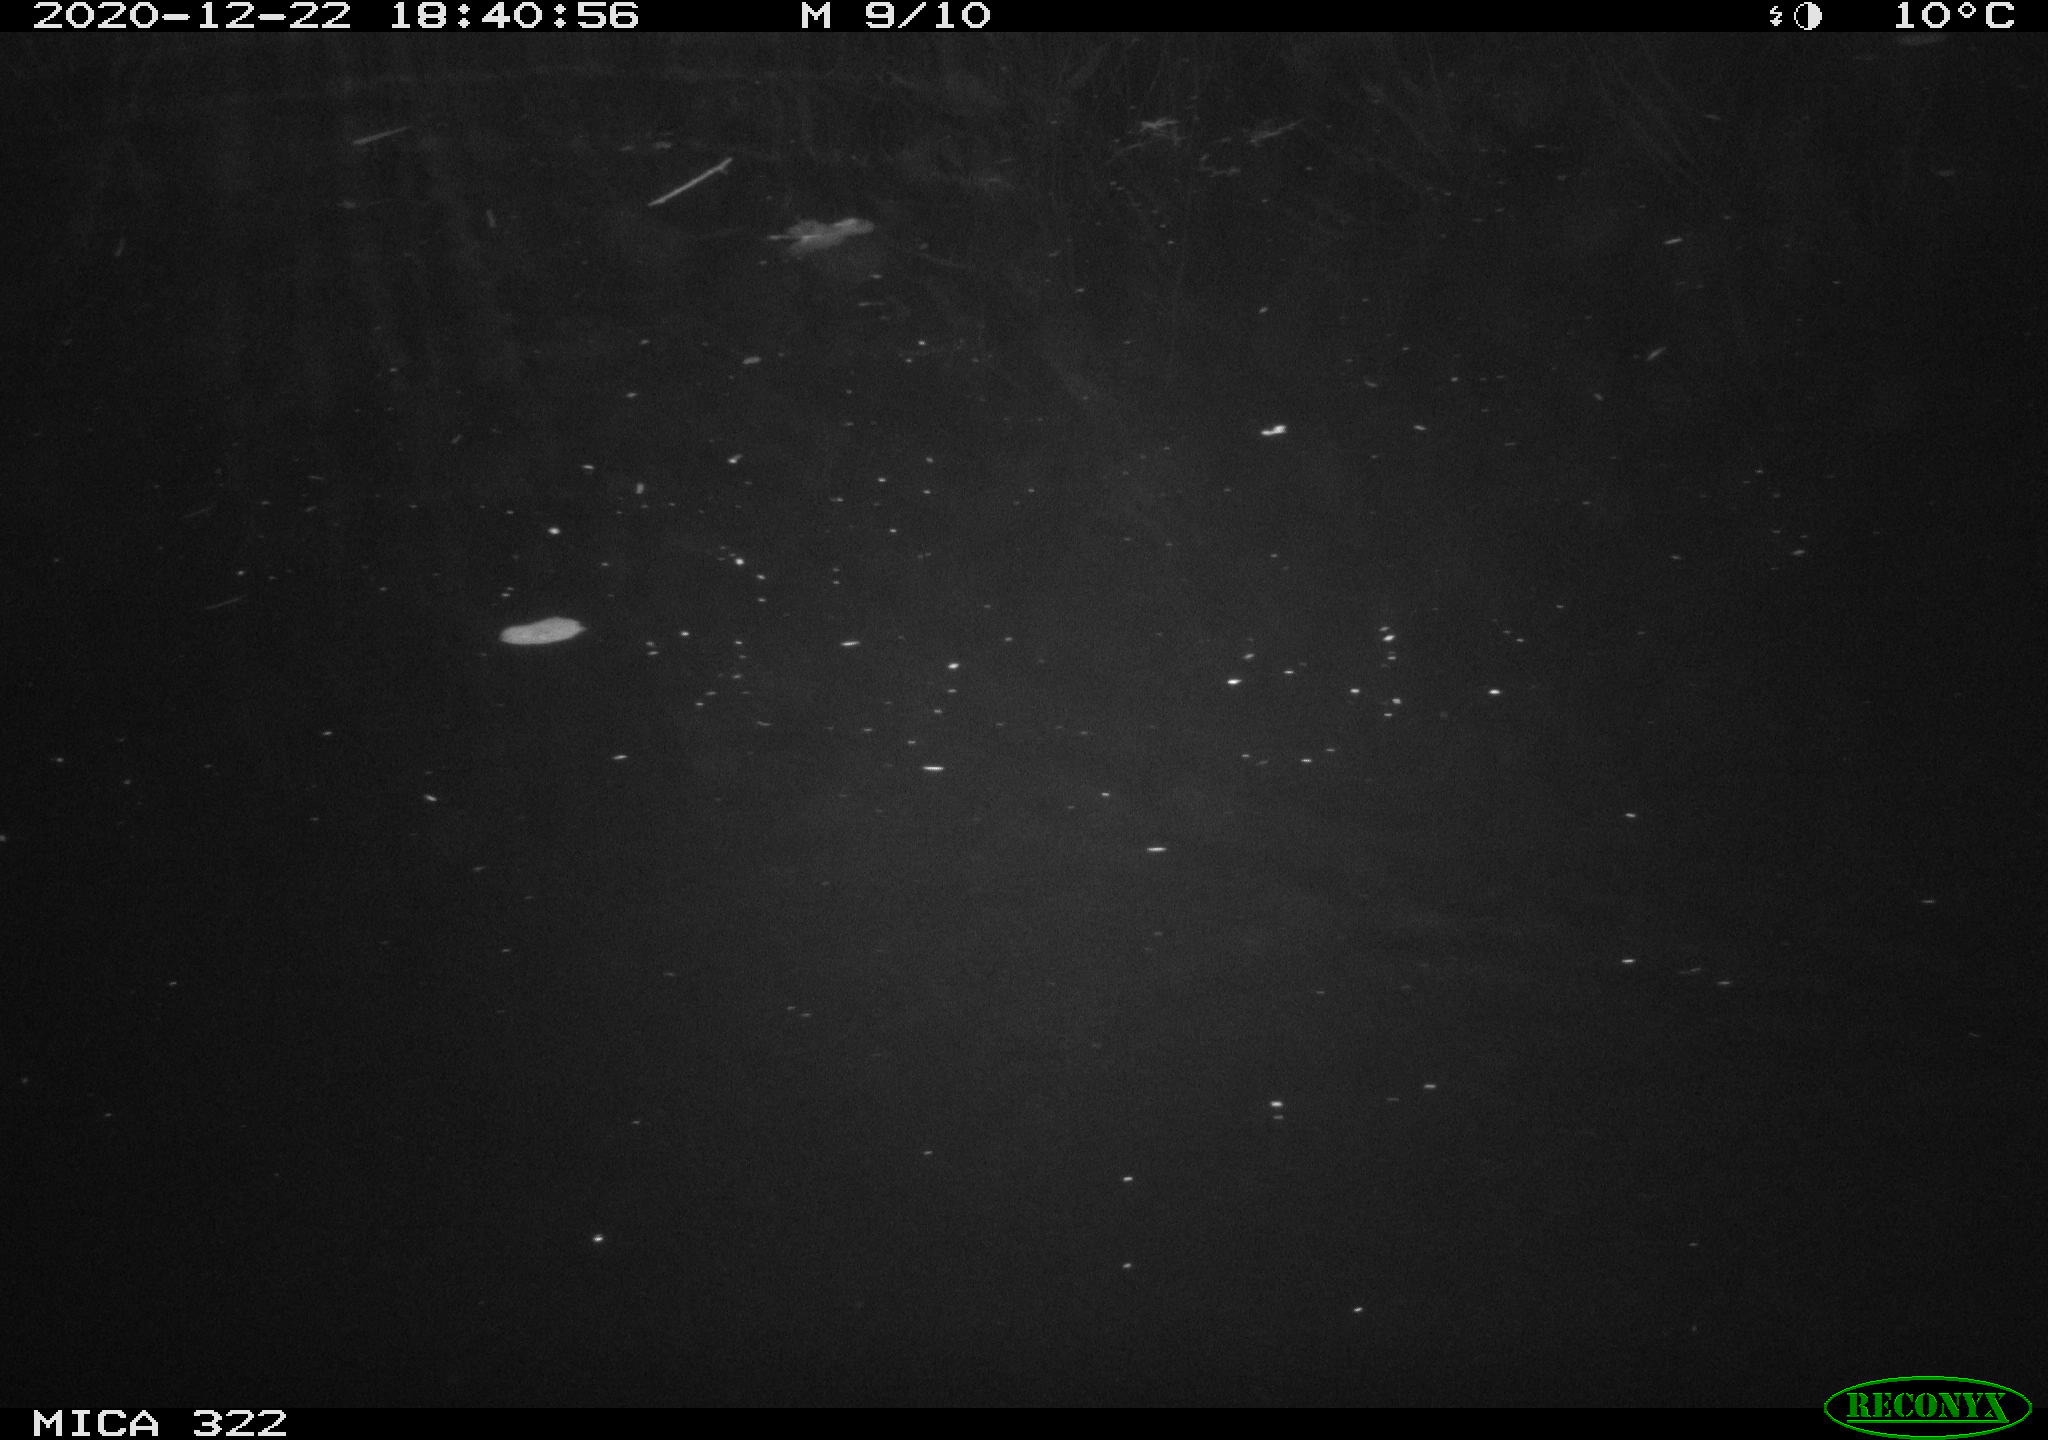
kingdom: Animalia
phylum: Chordata
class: Mammalia
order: Rodentia
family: Muridae
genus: Rattus
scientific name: Rattus norvegicus
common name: Brown rat
